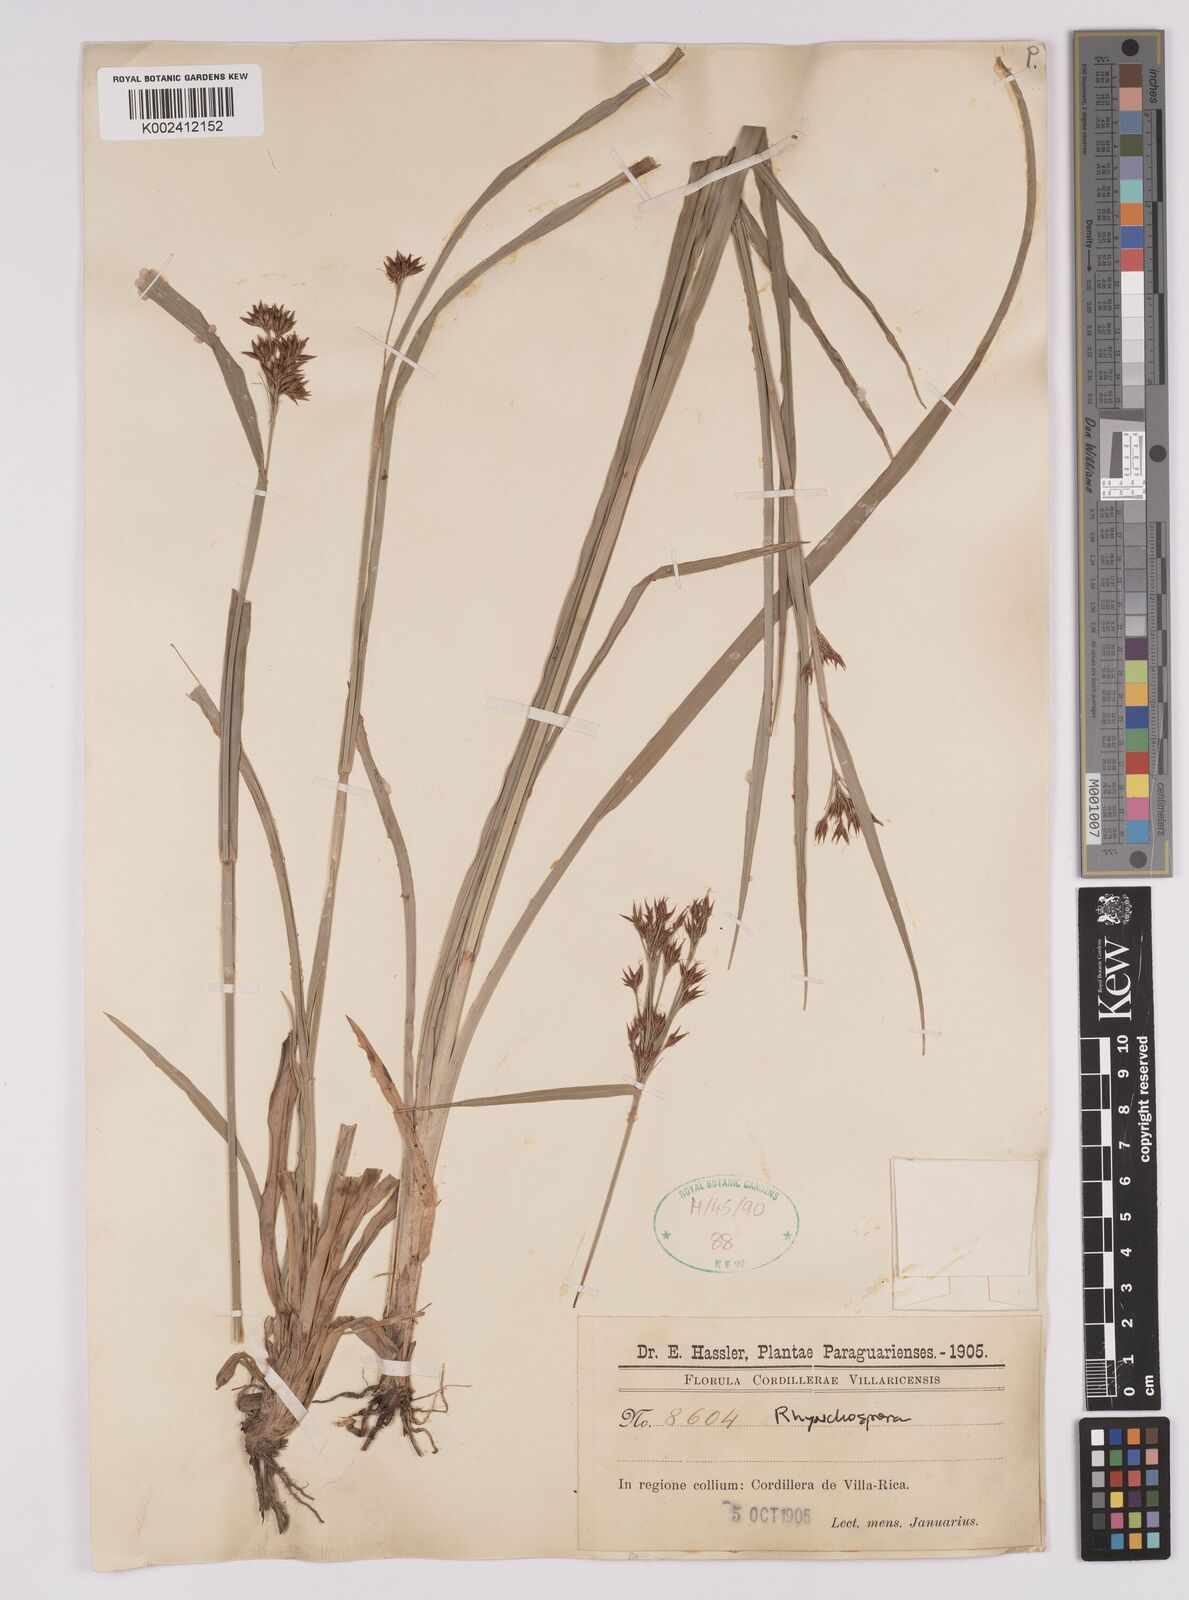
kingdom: Plantae
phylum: Tracheophyta
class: Liliopsida
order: Poales
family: Cyperaceae
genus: Rhynchospora
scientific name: Rhynchospora
